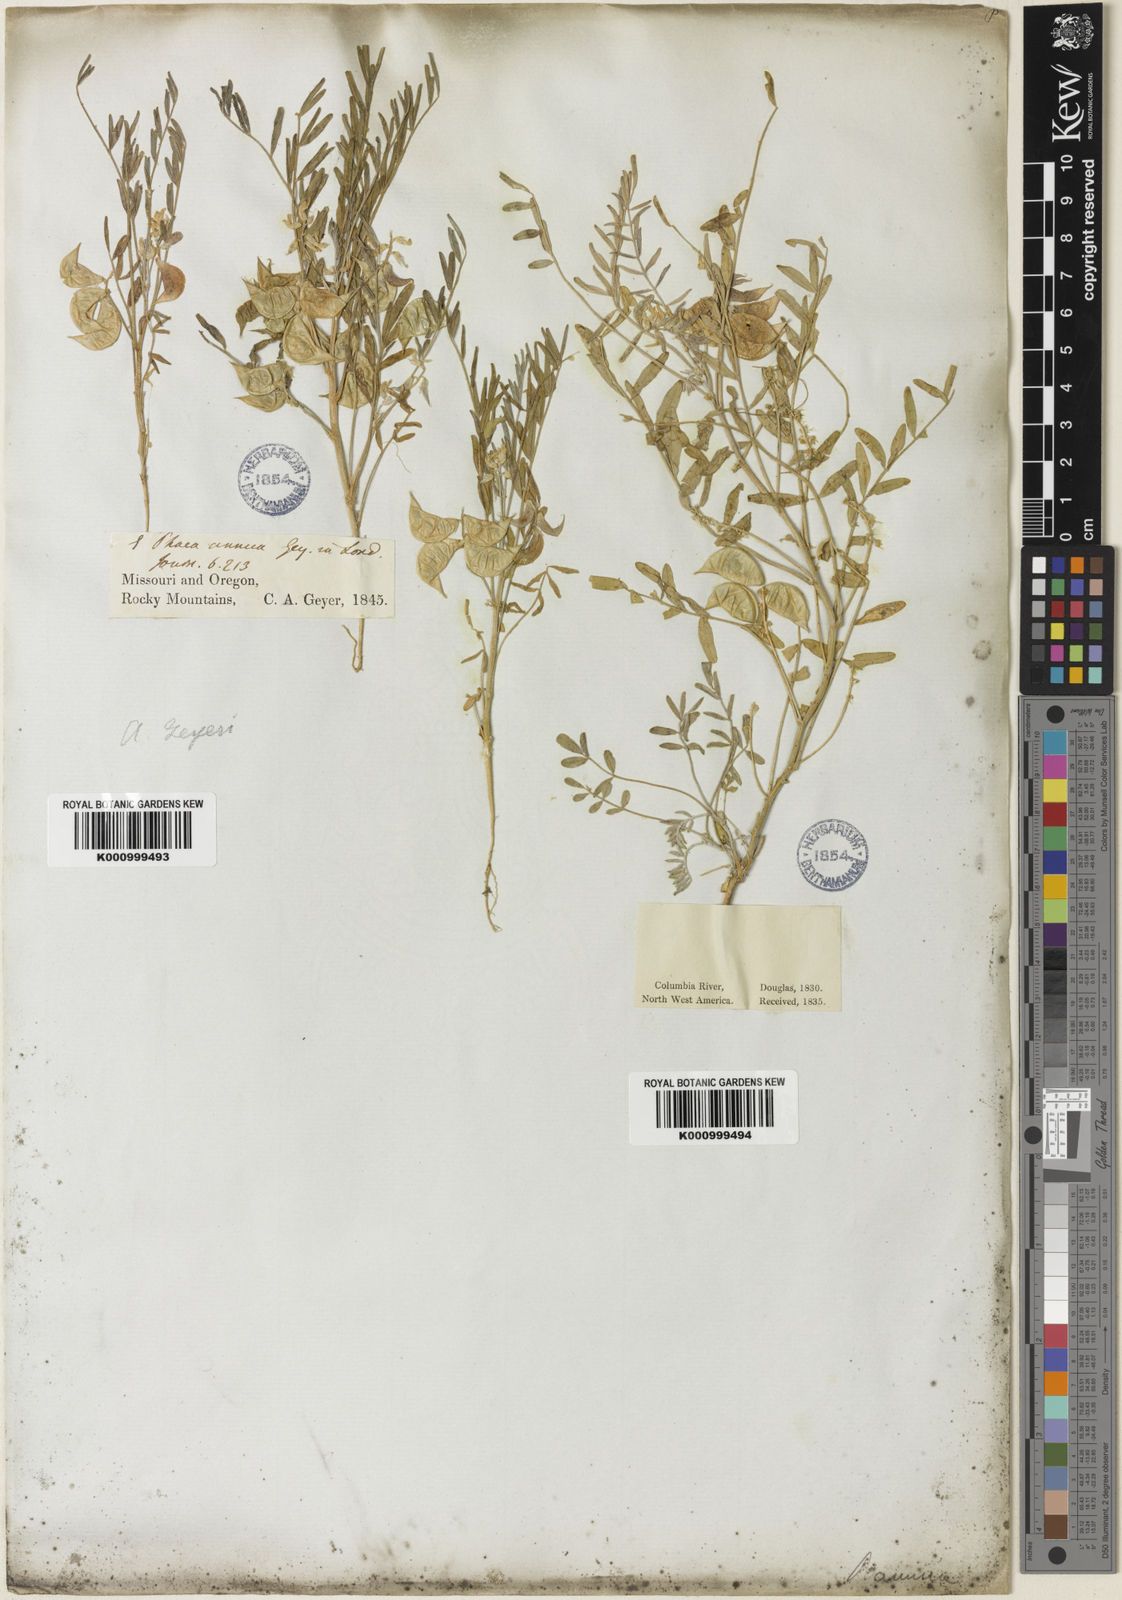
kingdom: Plantae
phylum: Tracheophyta
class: Magnoliopsida
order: Fabales
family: Fabaceae
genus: Astragalus
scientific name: Astragalus sesameus
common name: Purple milk-vetch
